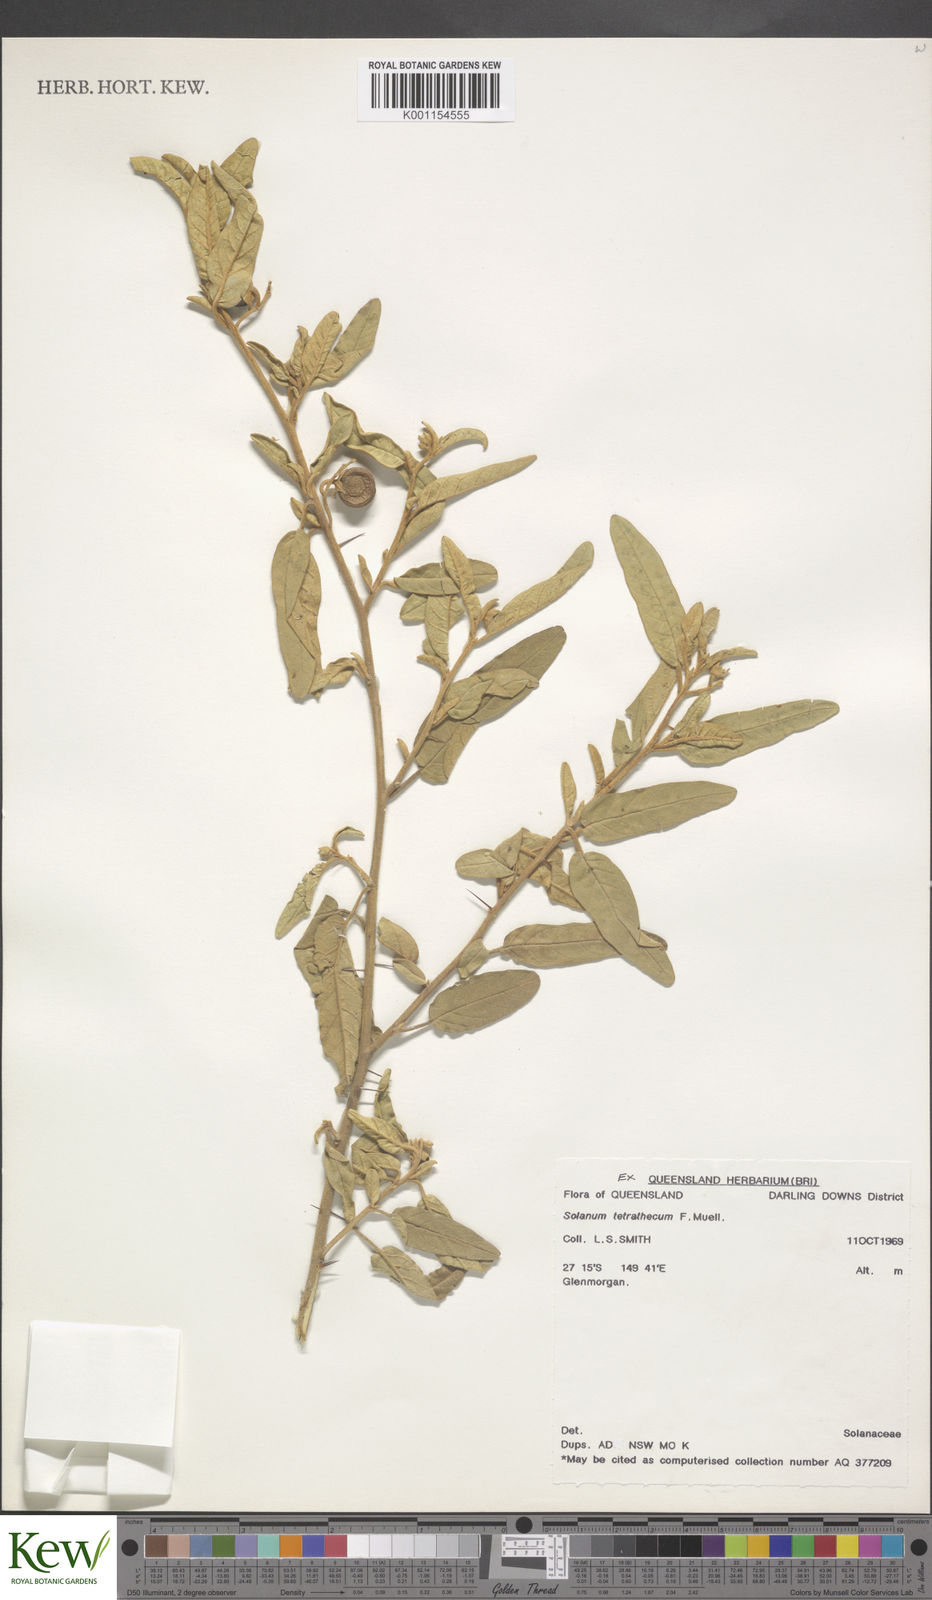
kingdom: Plantae
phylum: Tracheophyta
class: Magnoliopsida
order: Solanales
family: Solanaceae
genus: Solanum
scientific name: Solanum tetrathecum
